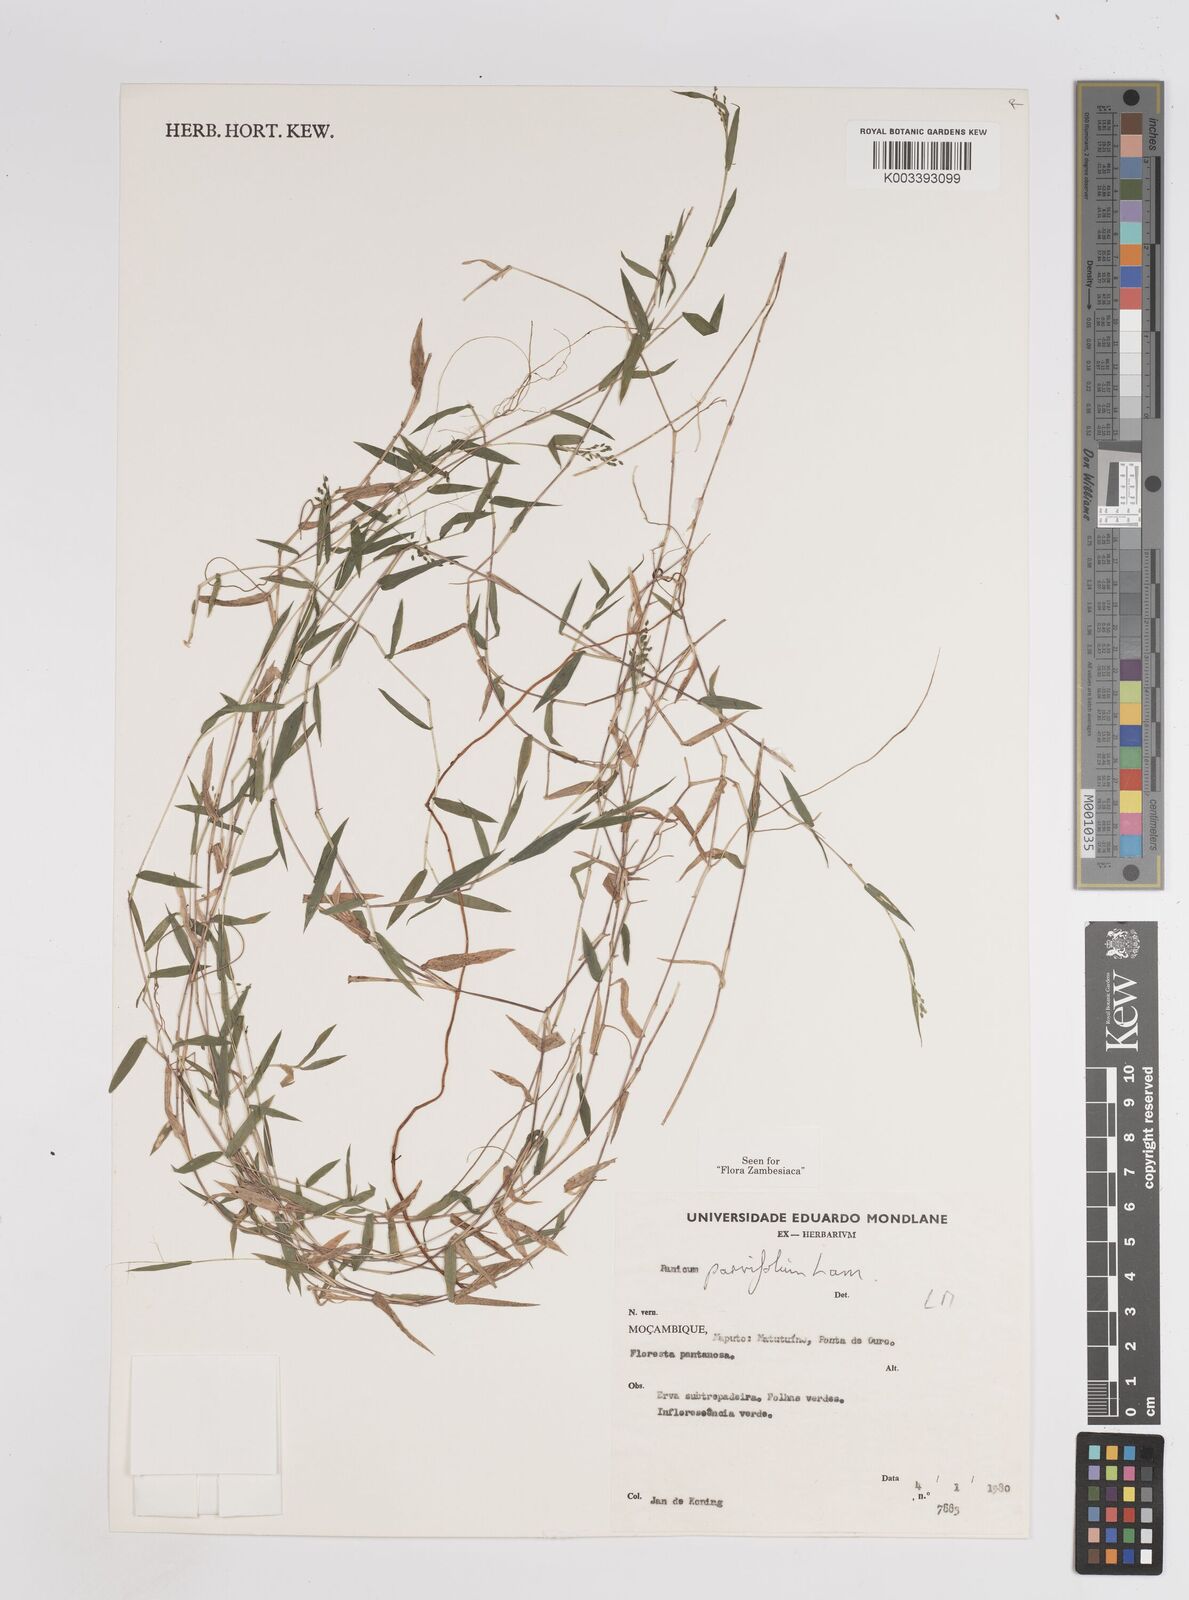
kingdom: Plantae
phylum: Tracheophyta
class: Liliopsida
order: Poales
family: Poaceae
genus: Trichanthecium
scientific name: Trichanthecium parvifolium
